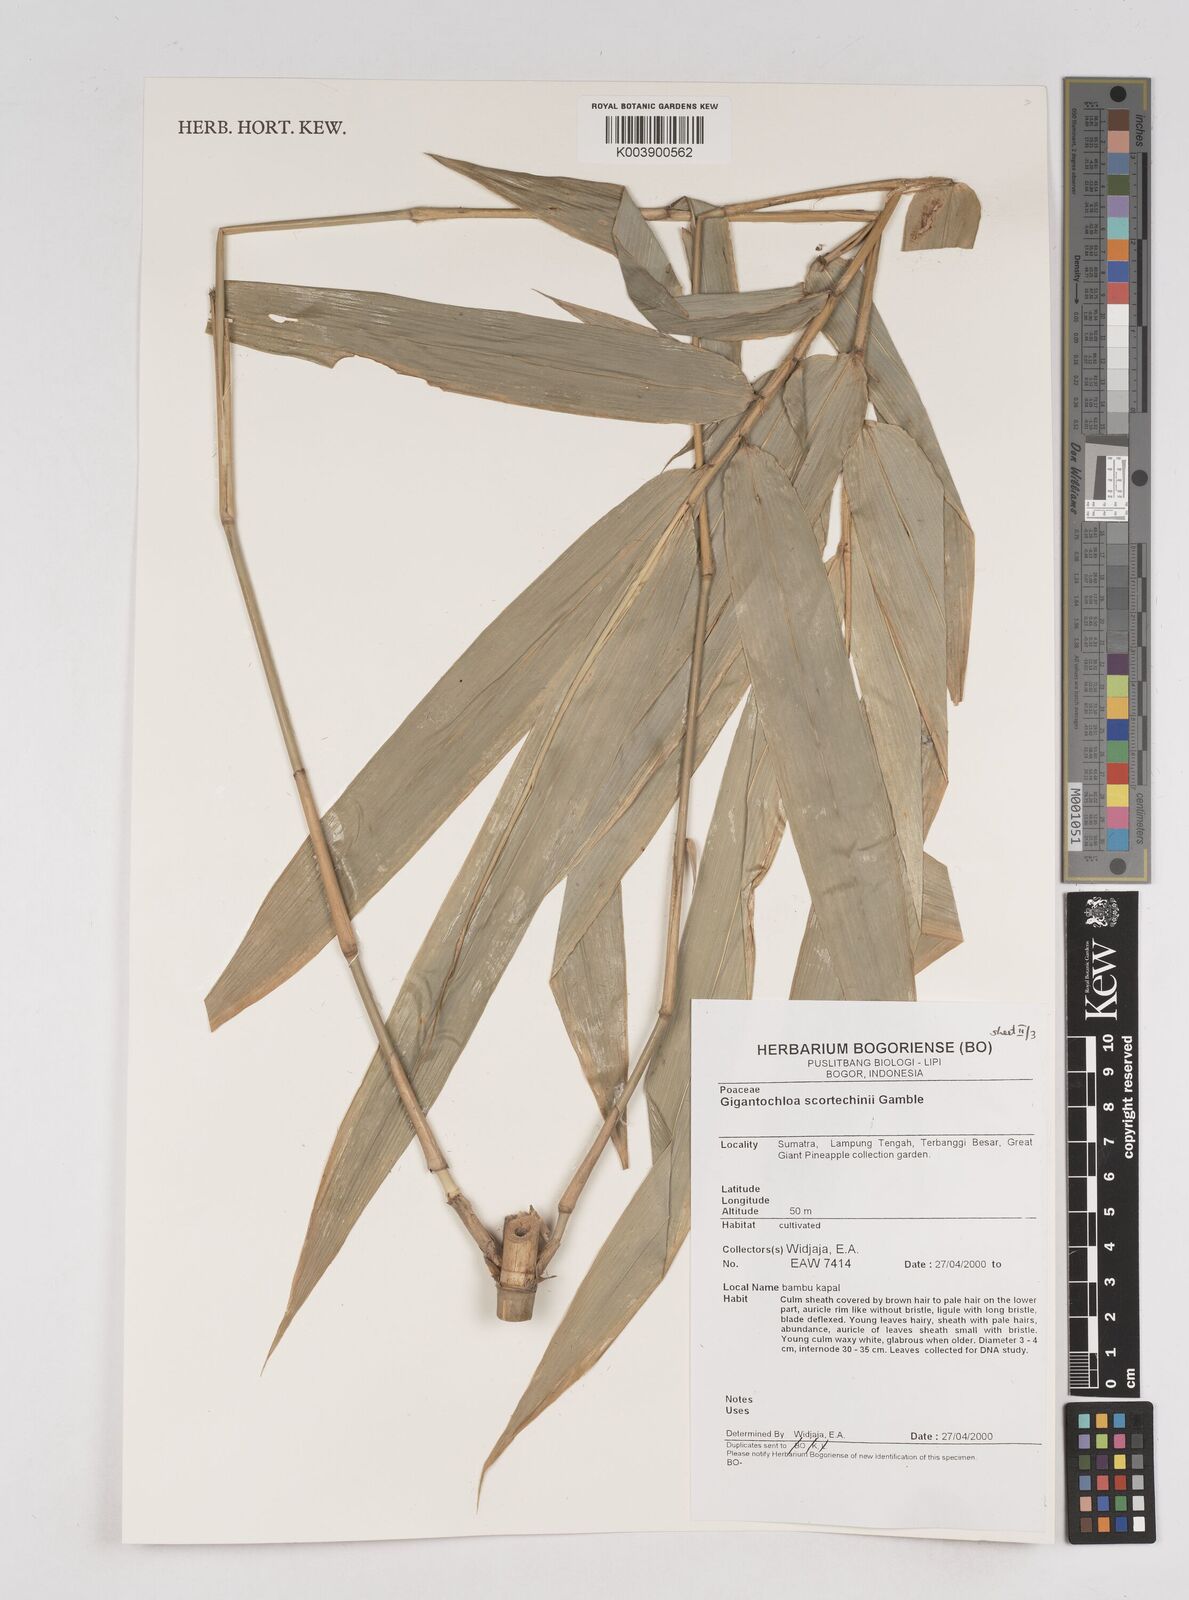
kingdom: Plantae
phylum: Tracheophyta
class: Liliopsida
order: Poales
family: Poaceae
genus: Gigantochloa
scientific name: Gigantochloa scortechinii
